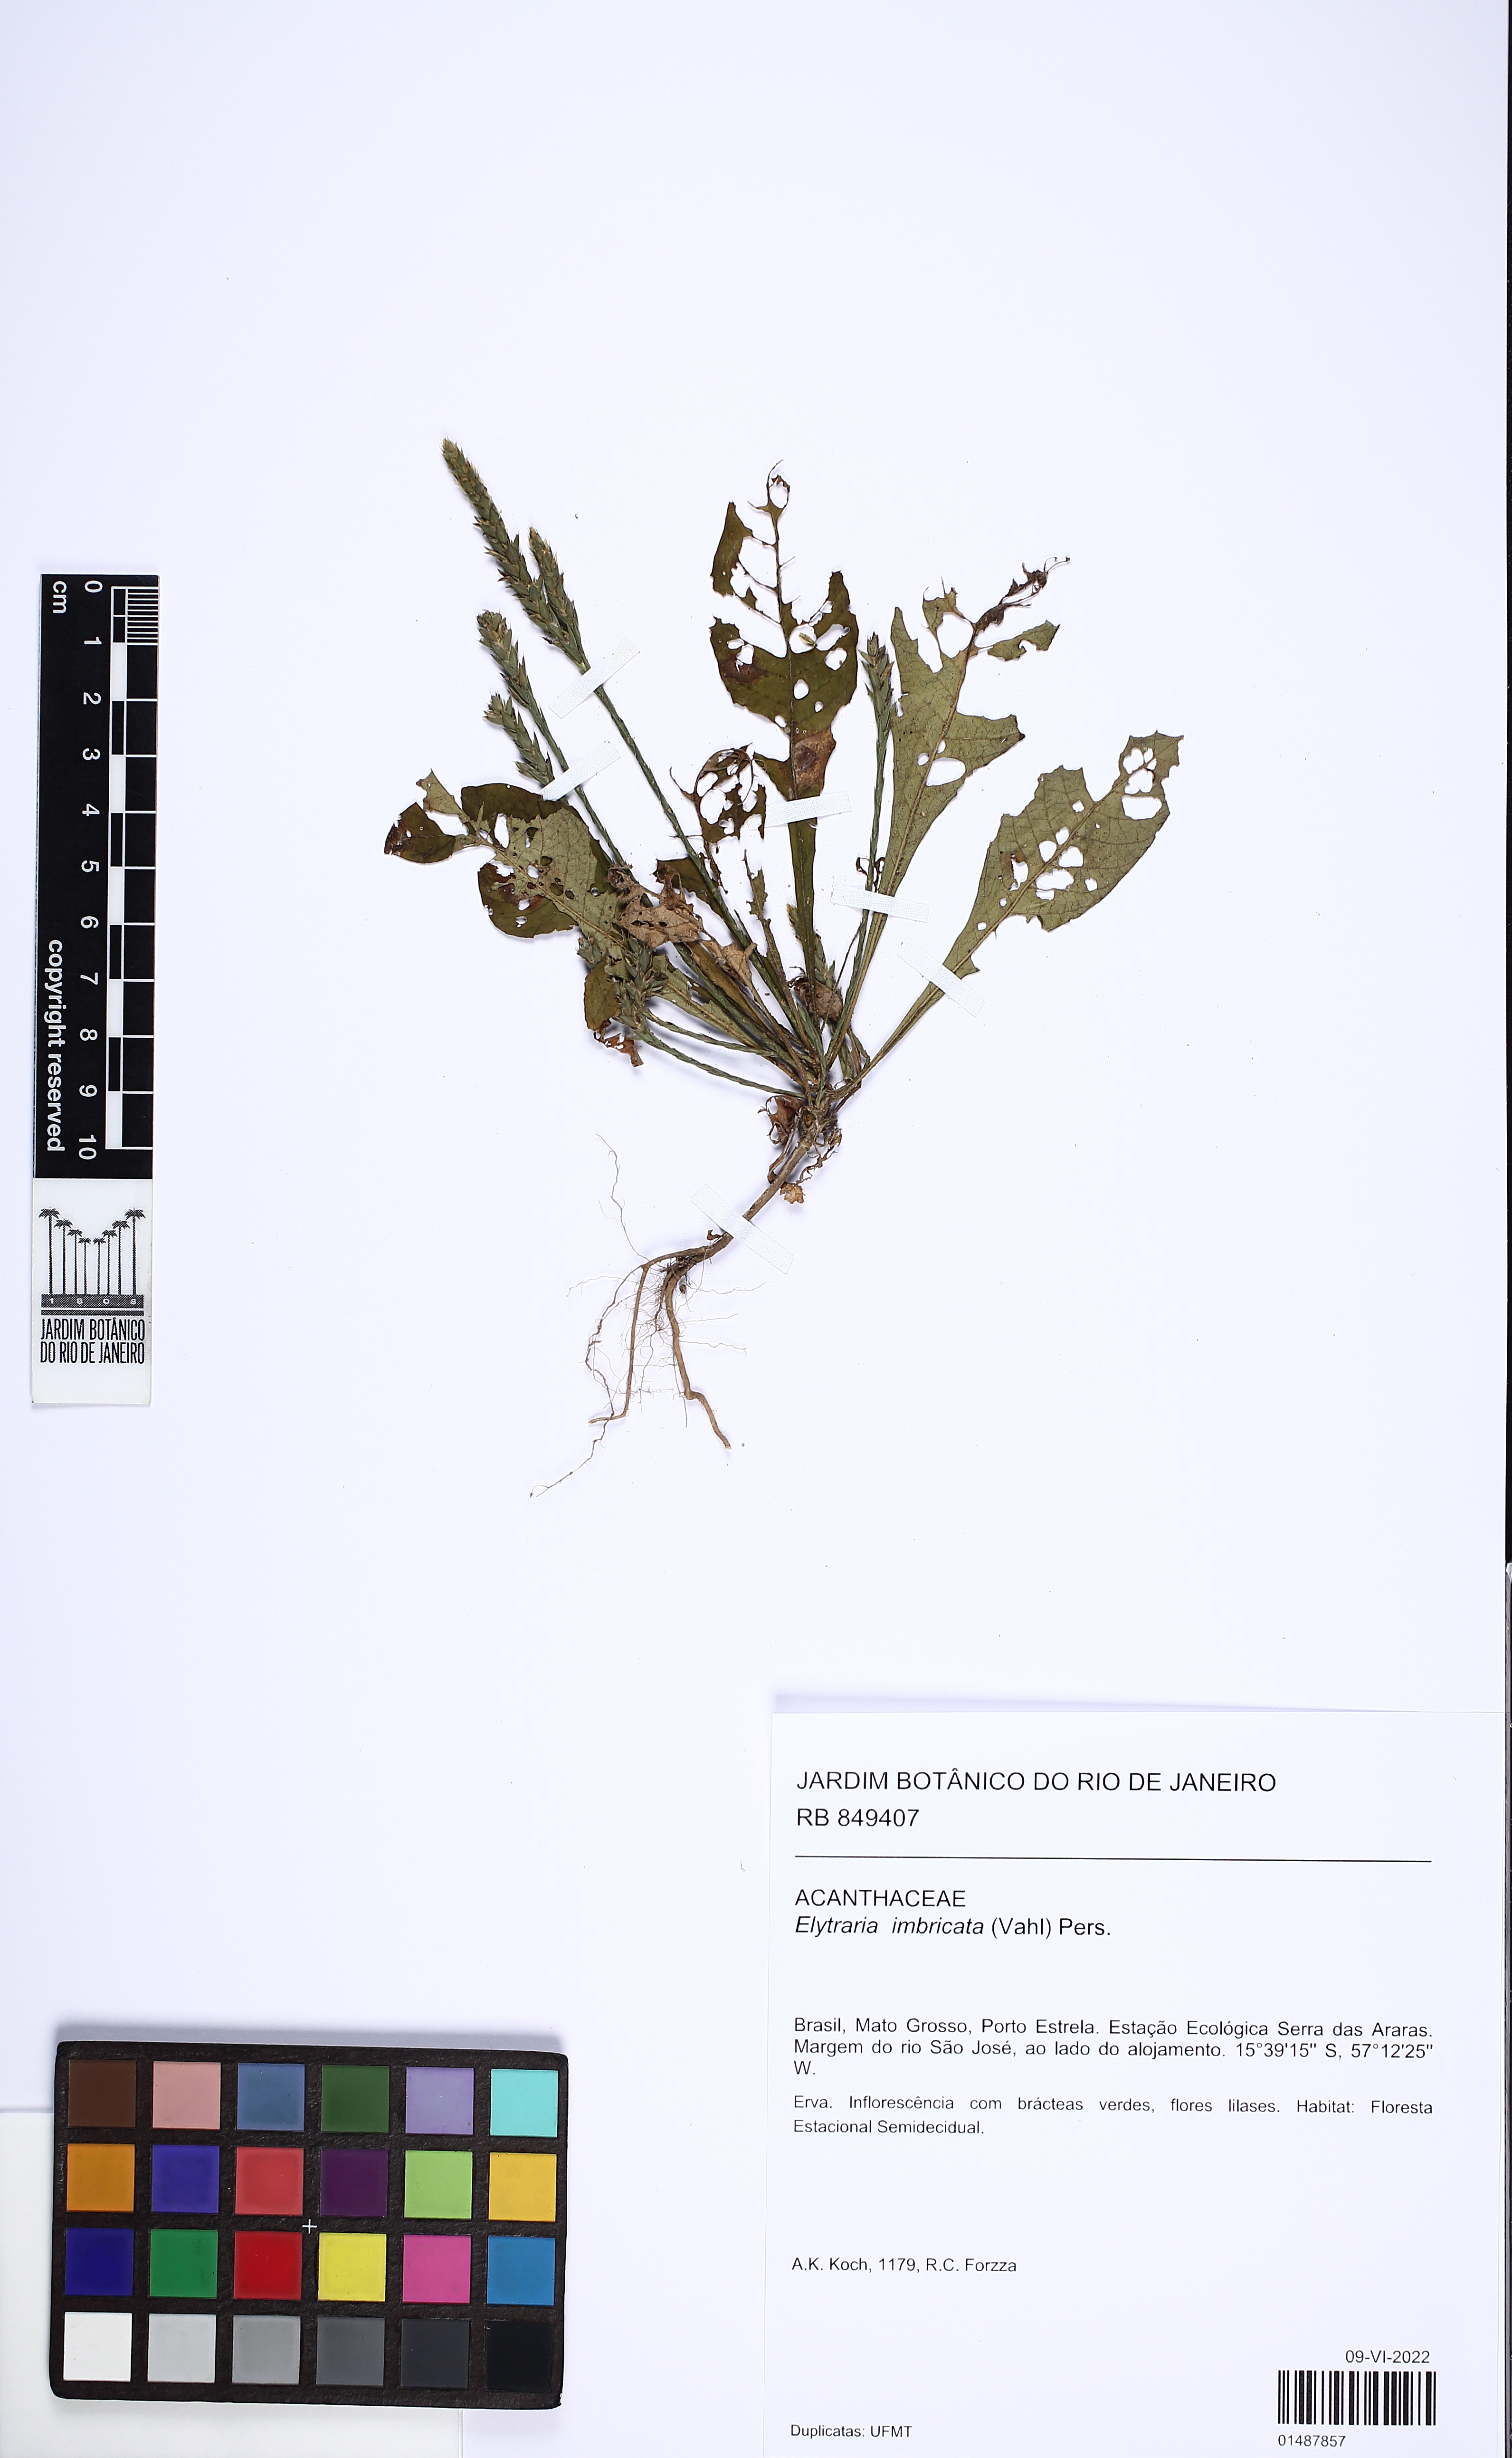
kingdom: Plantae
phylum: Tracheophyta
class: Magnoliopsida
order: Lamiales
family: Acanthaceae
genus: Elytraria
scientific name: Elytraria imbricata
